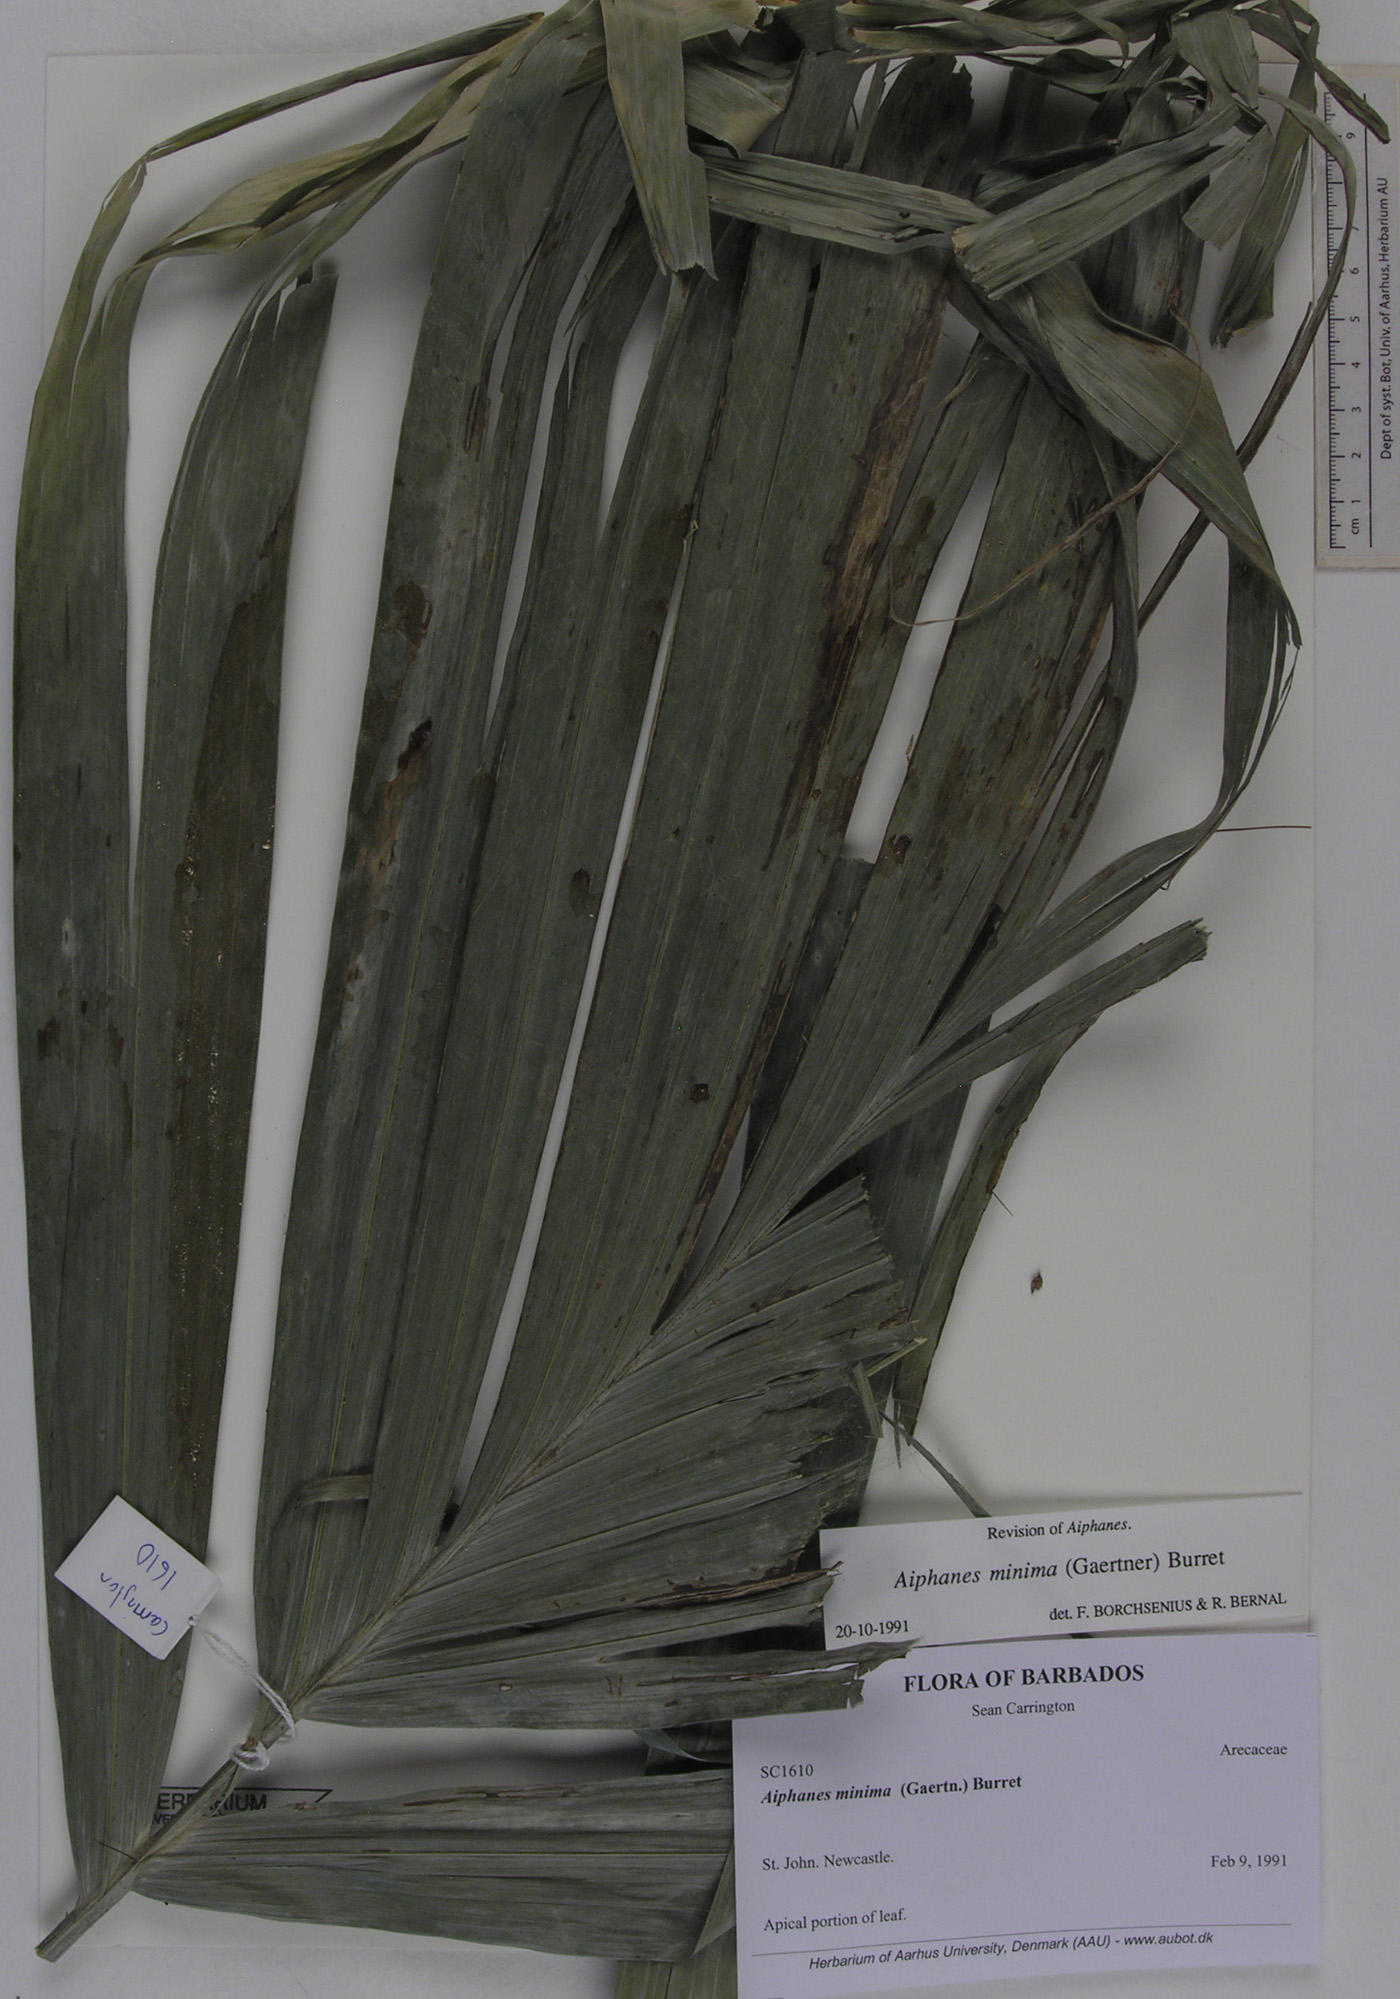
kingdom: Plantae
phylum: Tracheophyta
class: Liliopsida
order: Arecales
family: Arecaceae
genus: Aiphanes
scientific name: Aiphanes minima
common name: Grigri
